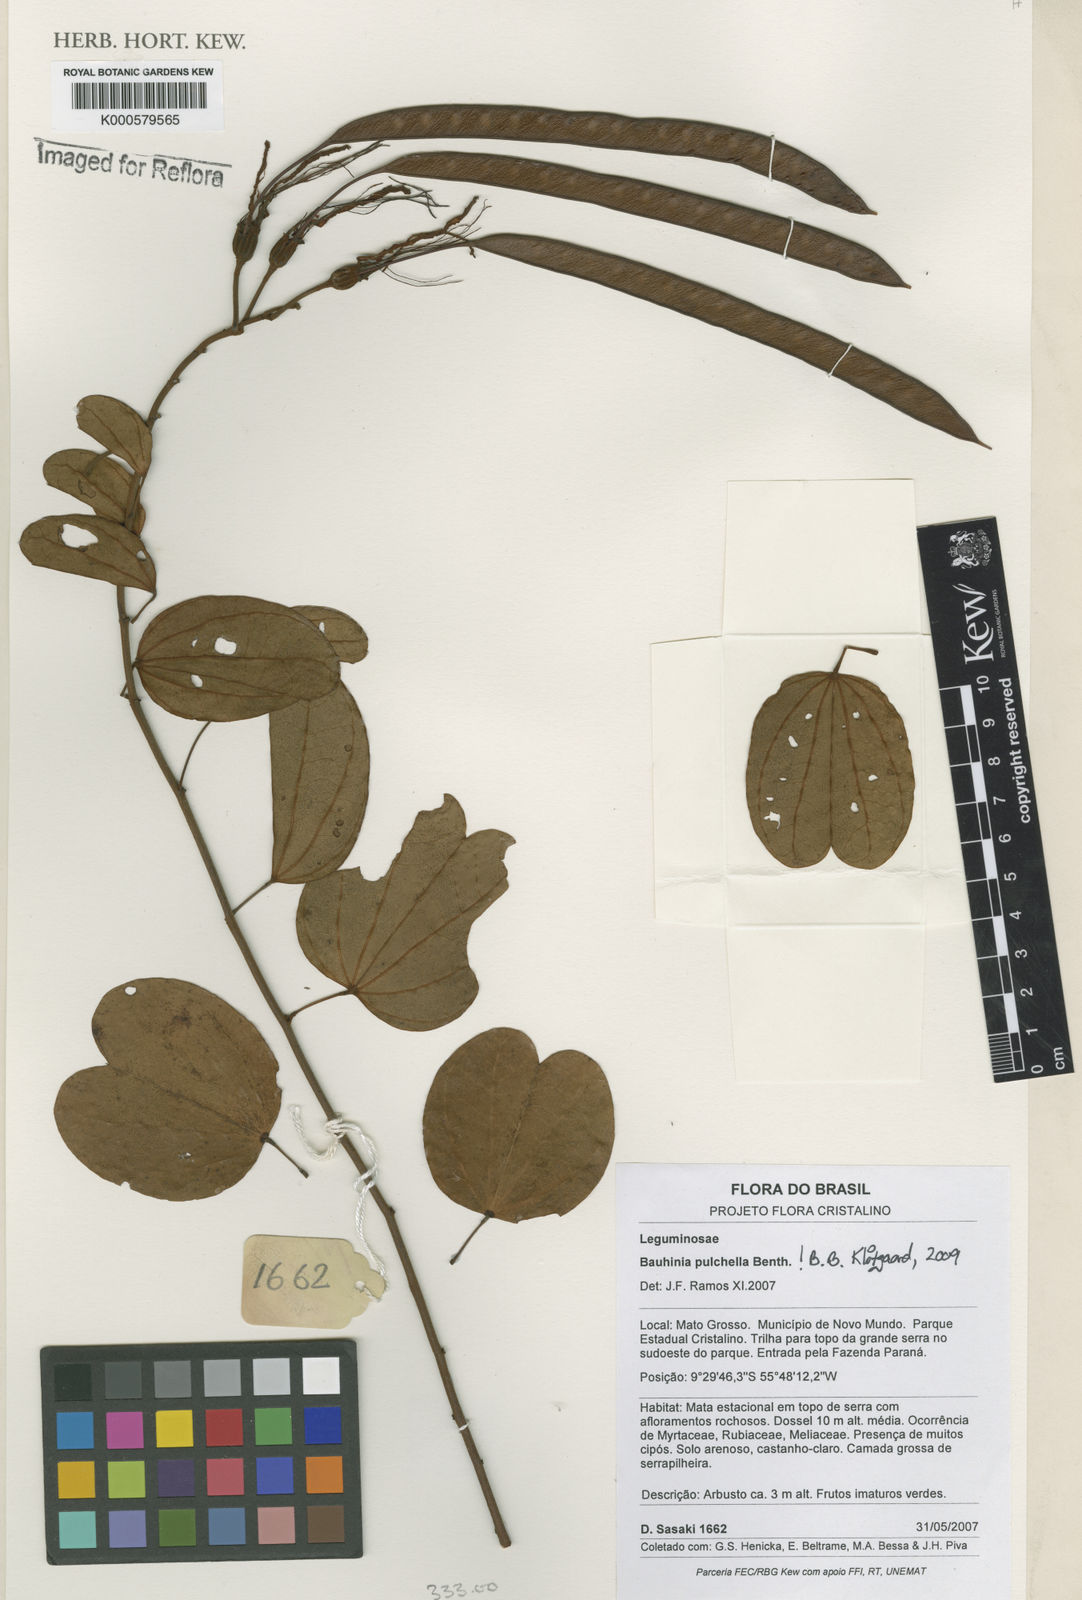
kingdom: Plantae
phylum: Tracheophyta
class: Magnoliopsida
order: Fabales
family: Fabaceae
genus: Bauhinia
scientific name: Bauhinia pulchella
